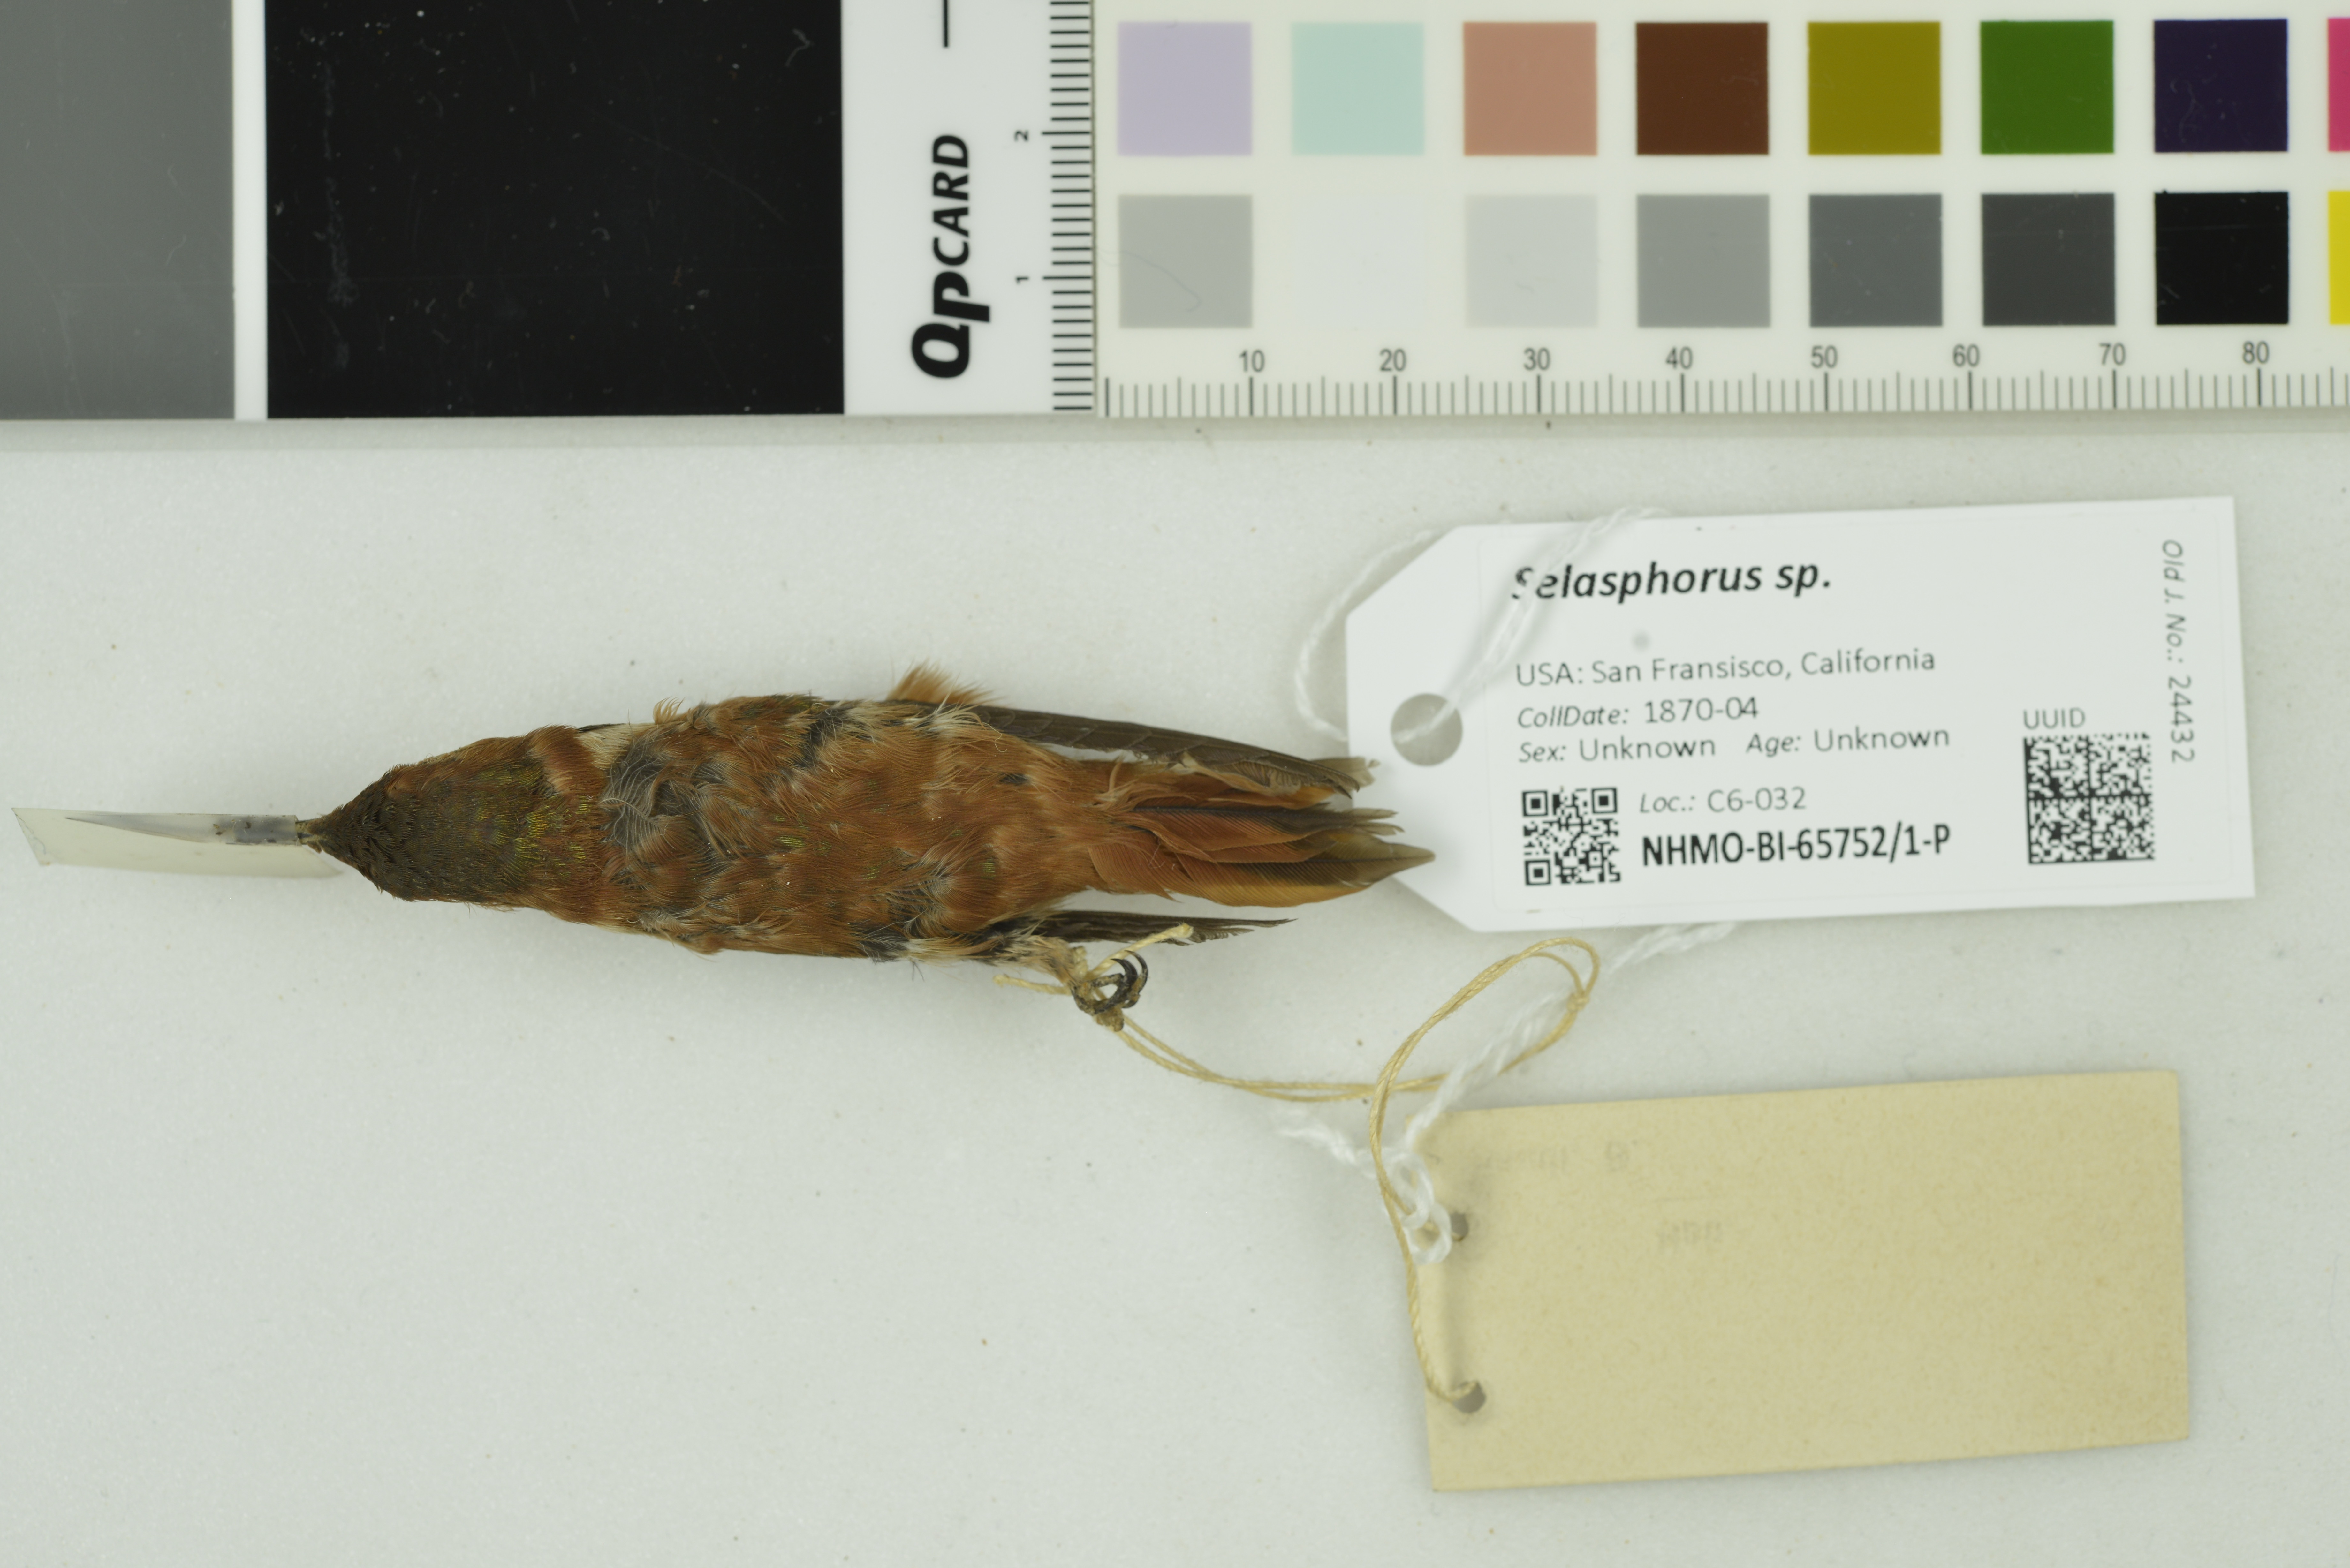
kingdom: Animalia
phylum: Chordata
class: Aves
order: Apodiformes
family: Trochilidae
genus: Selasphorus
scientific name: Selasphorus
